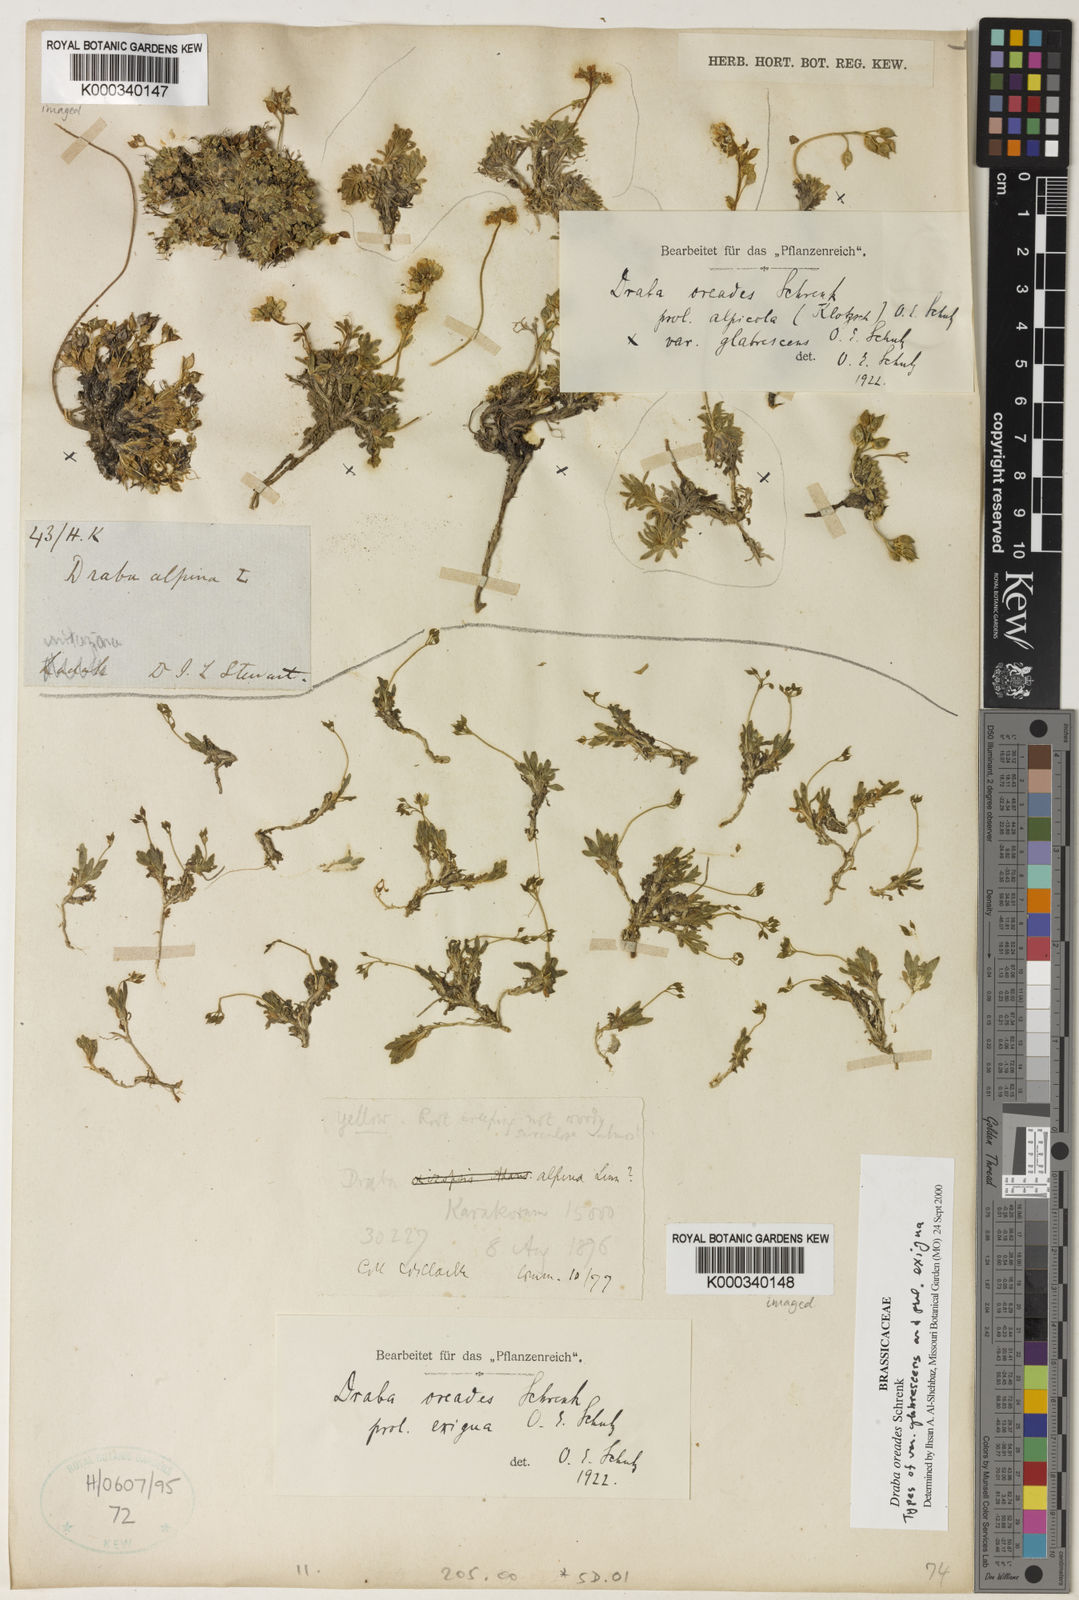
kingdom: Plantae
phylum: Tracheophyta
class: Magnoliopsida
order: Brassicales
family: Brassicaceae
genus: Draba
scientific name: Draba oreades
